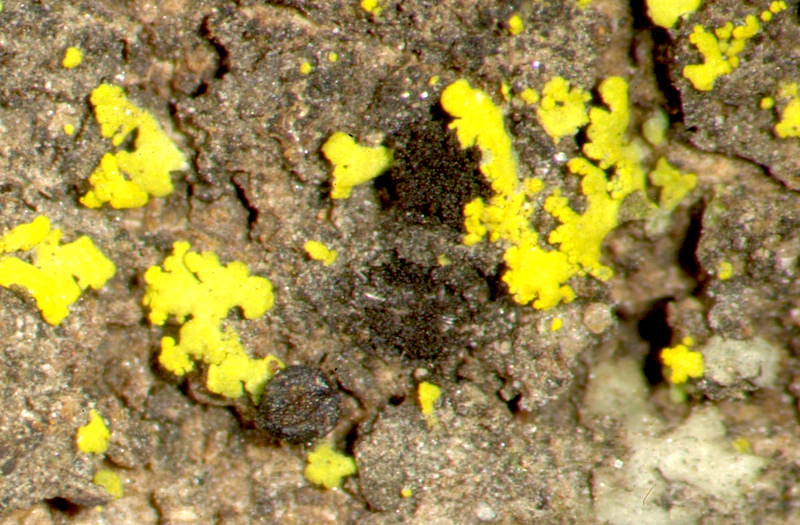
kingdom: Fungi
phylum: Ascomycota
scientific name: Ascomycota
